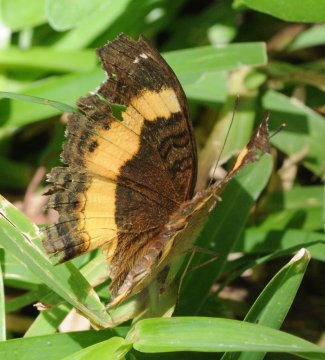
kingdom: Animalia
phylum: Arthropoda
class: Insecta
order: Lepidoptera
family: Nymphalidae
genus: Junonia
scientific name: Junonia terea
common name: Soldier Pansy
